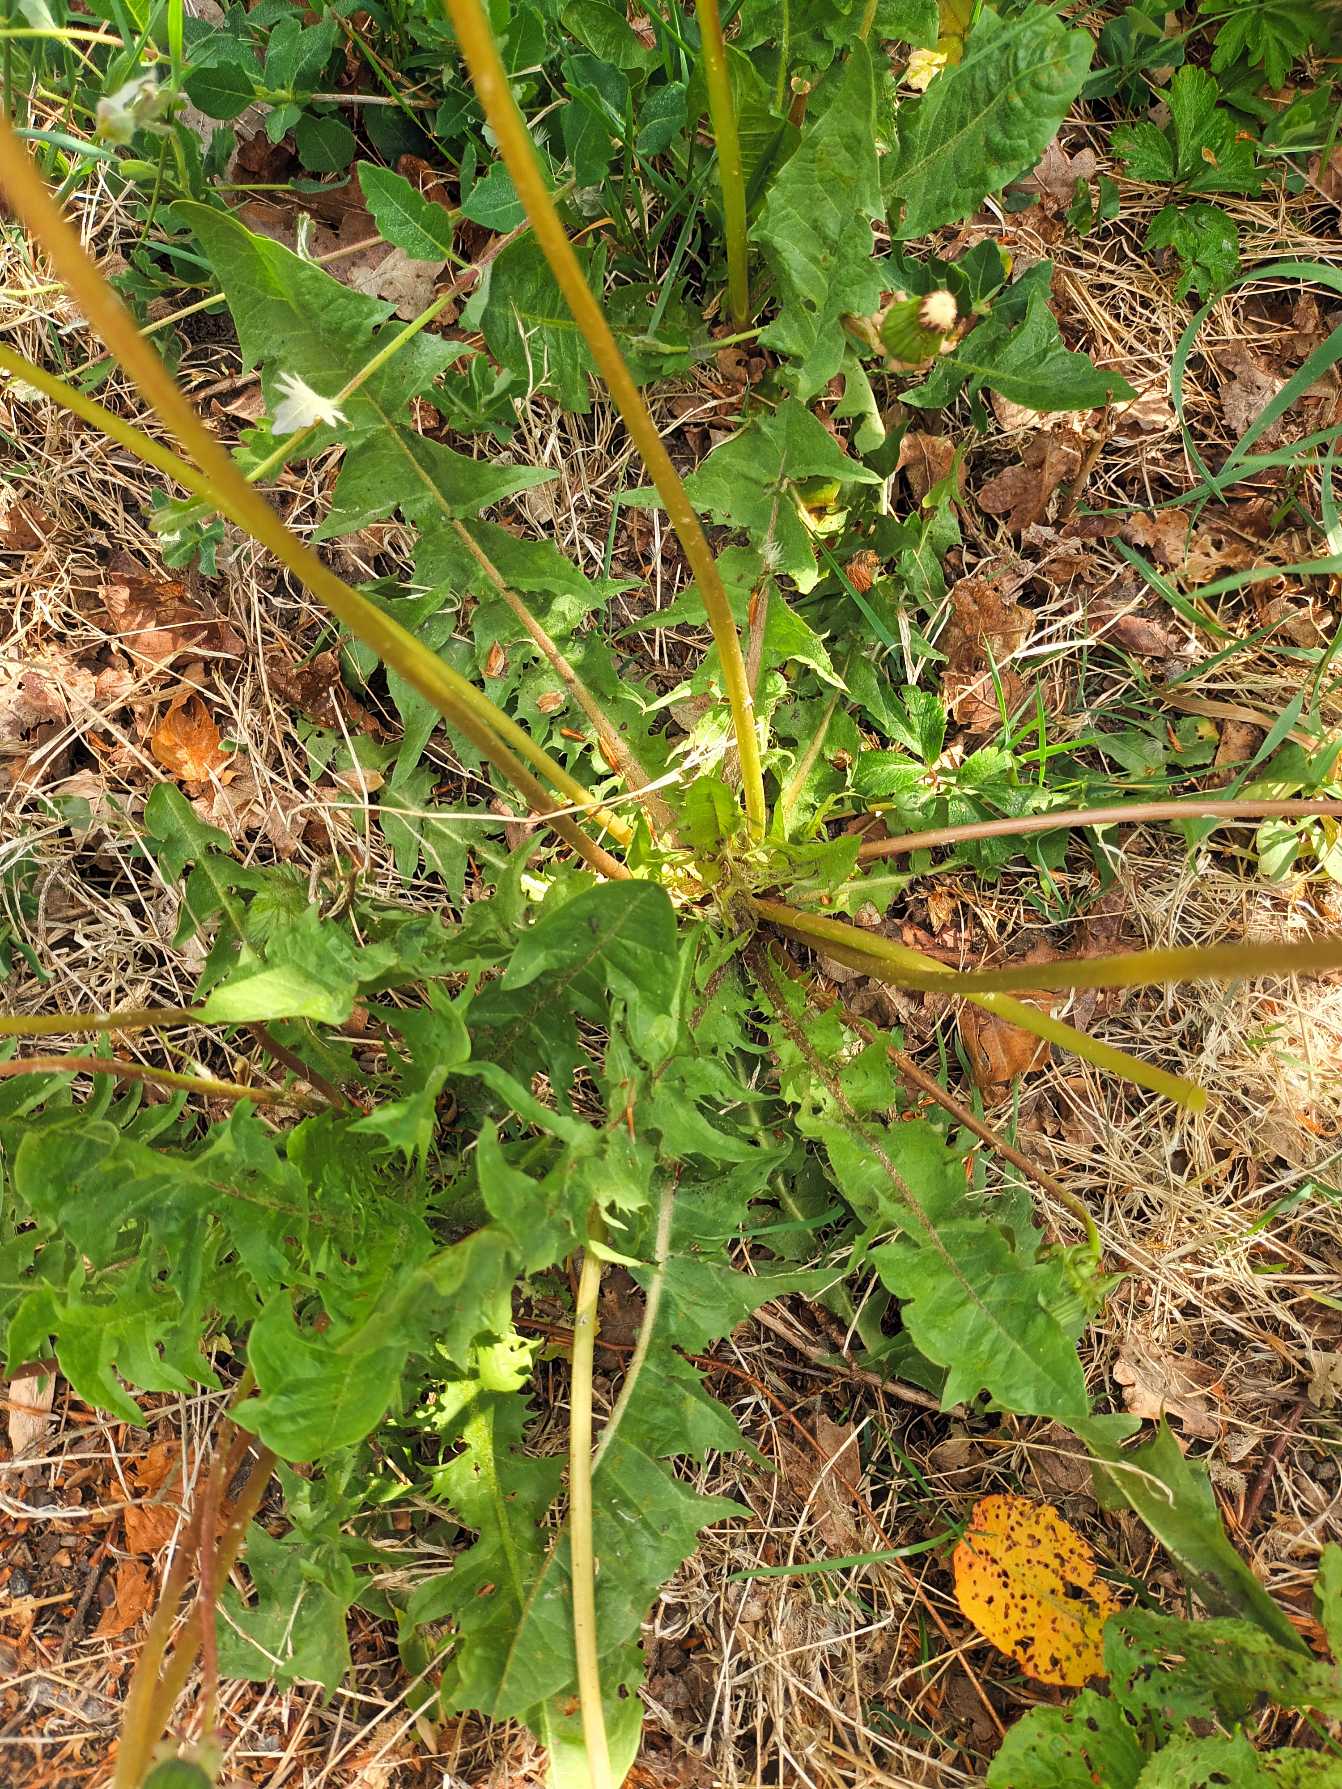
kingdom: Plantae
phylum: Tracheophyta
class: Magnoliopsida
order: Asterales
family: Asteraceae
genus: Taraxacum
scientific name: Taraxacum
